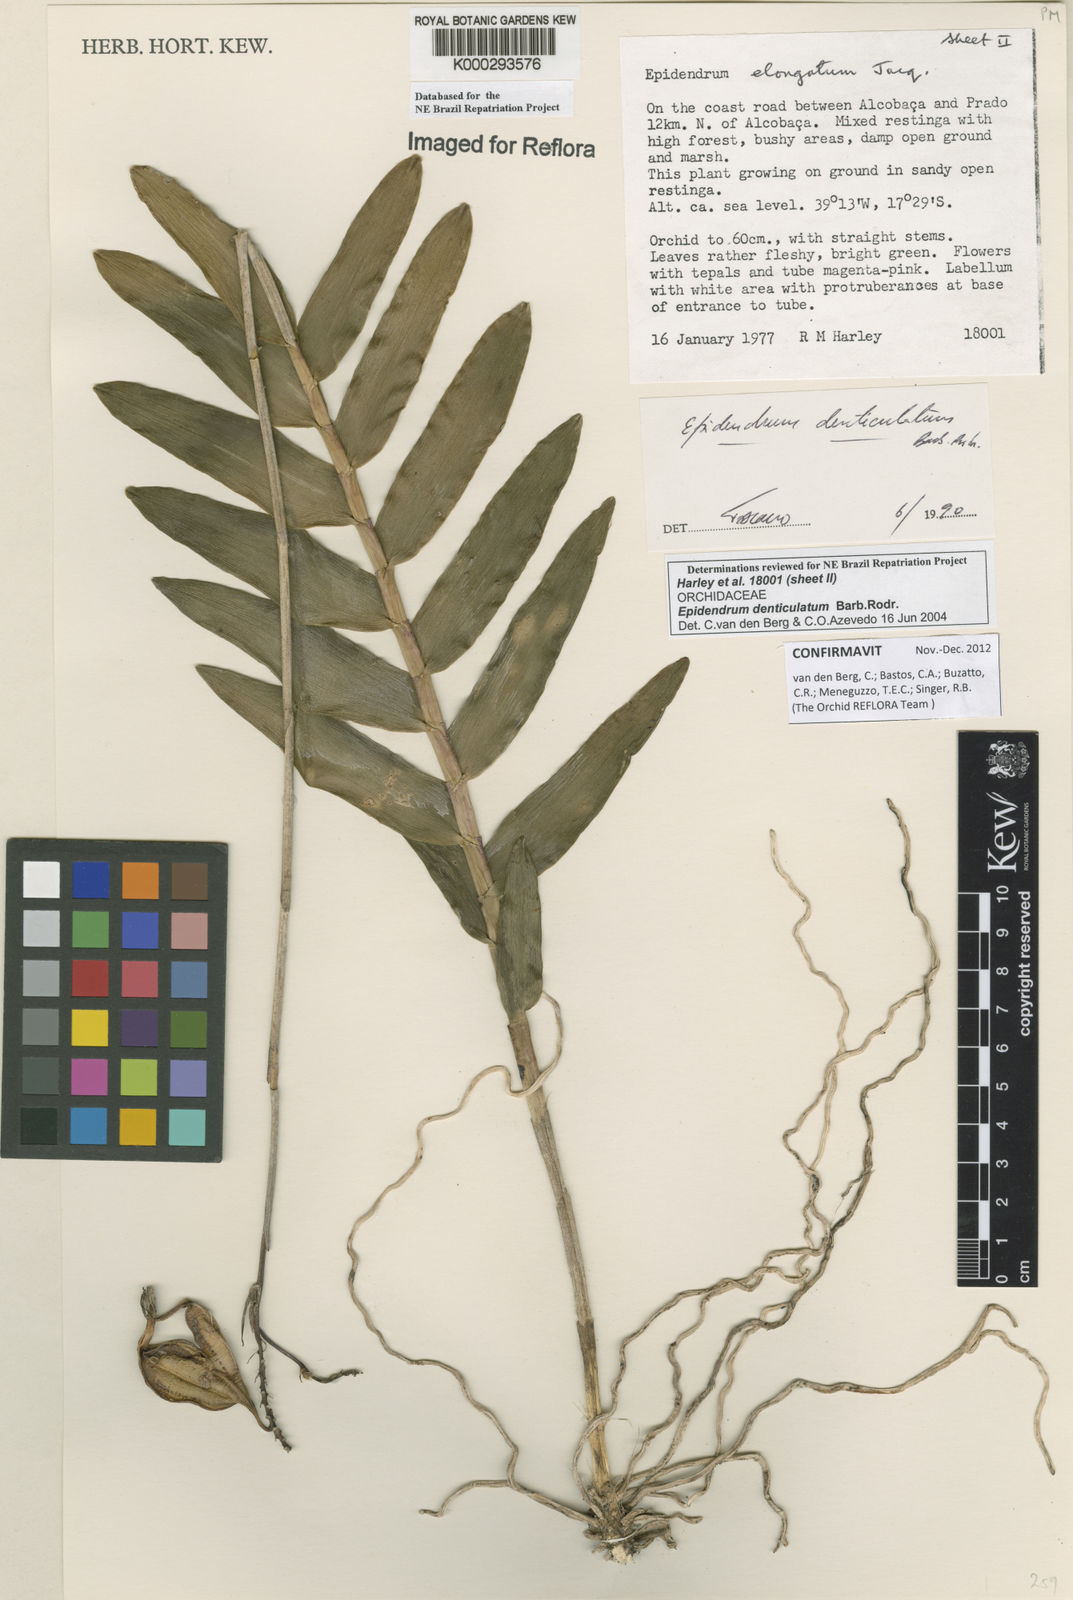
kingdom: Plantae
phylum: Tracheophyta
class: Liliopsida
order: Asparagales
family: Orchidaceae
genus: Epidendrum
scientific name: Epidendrum denticulatum
